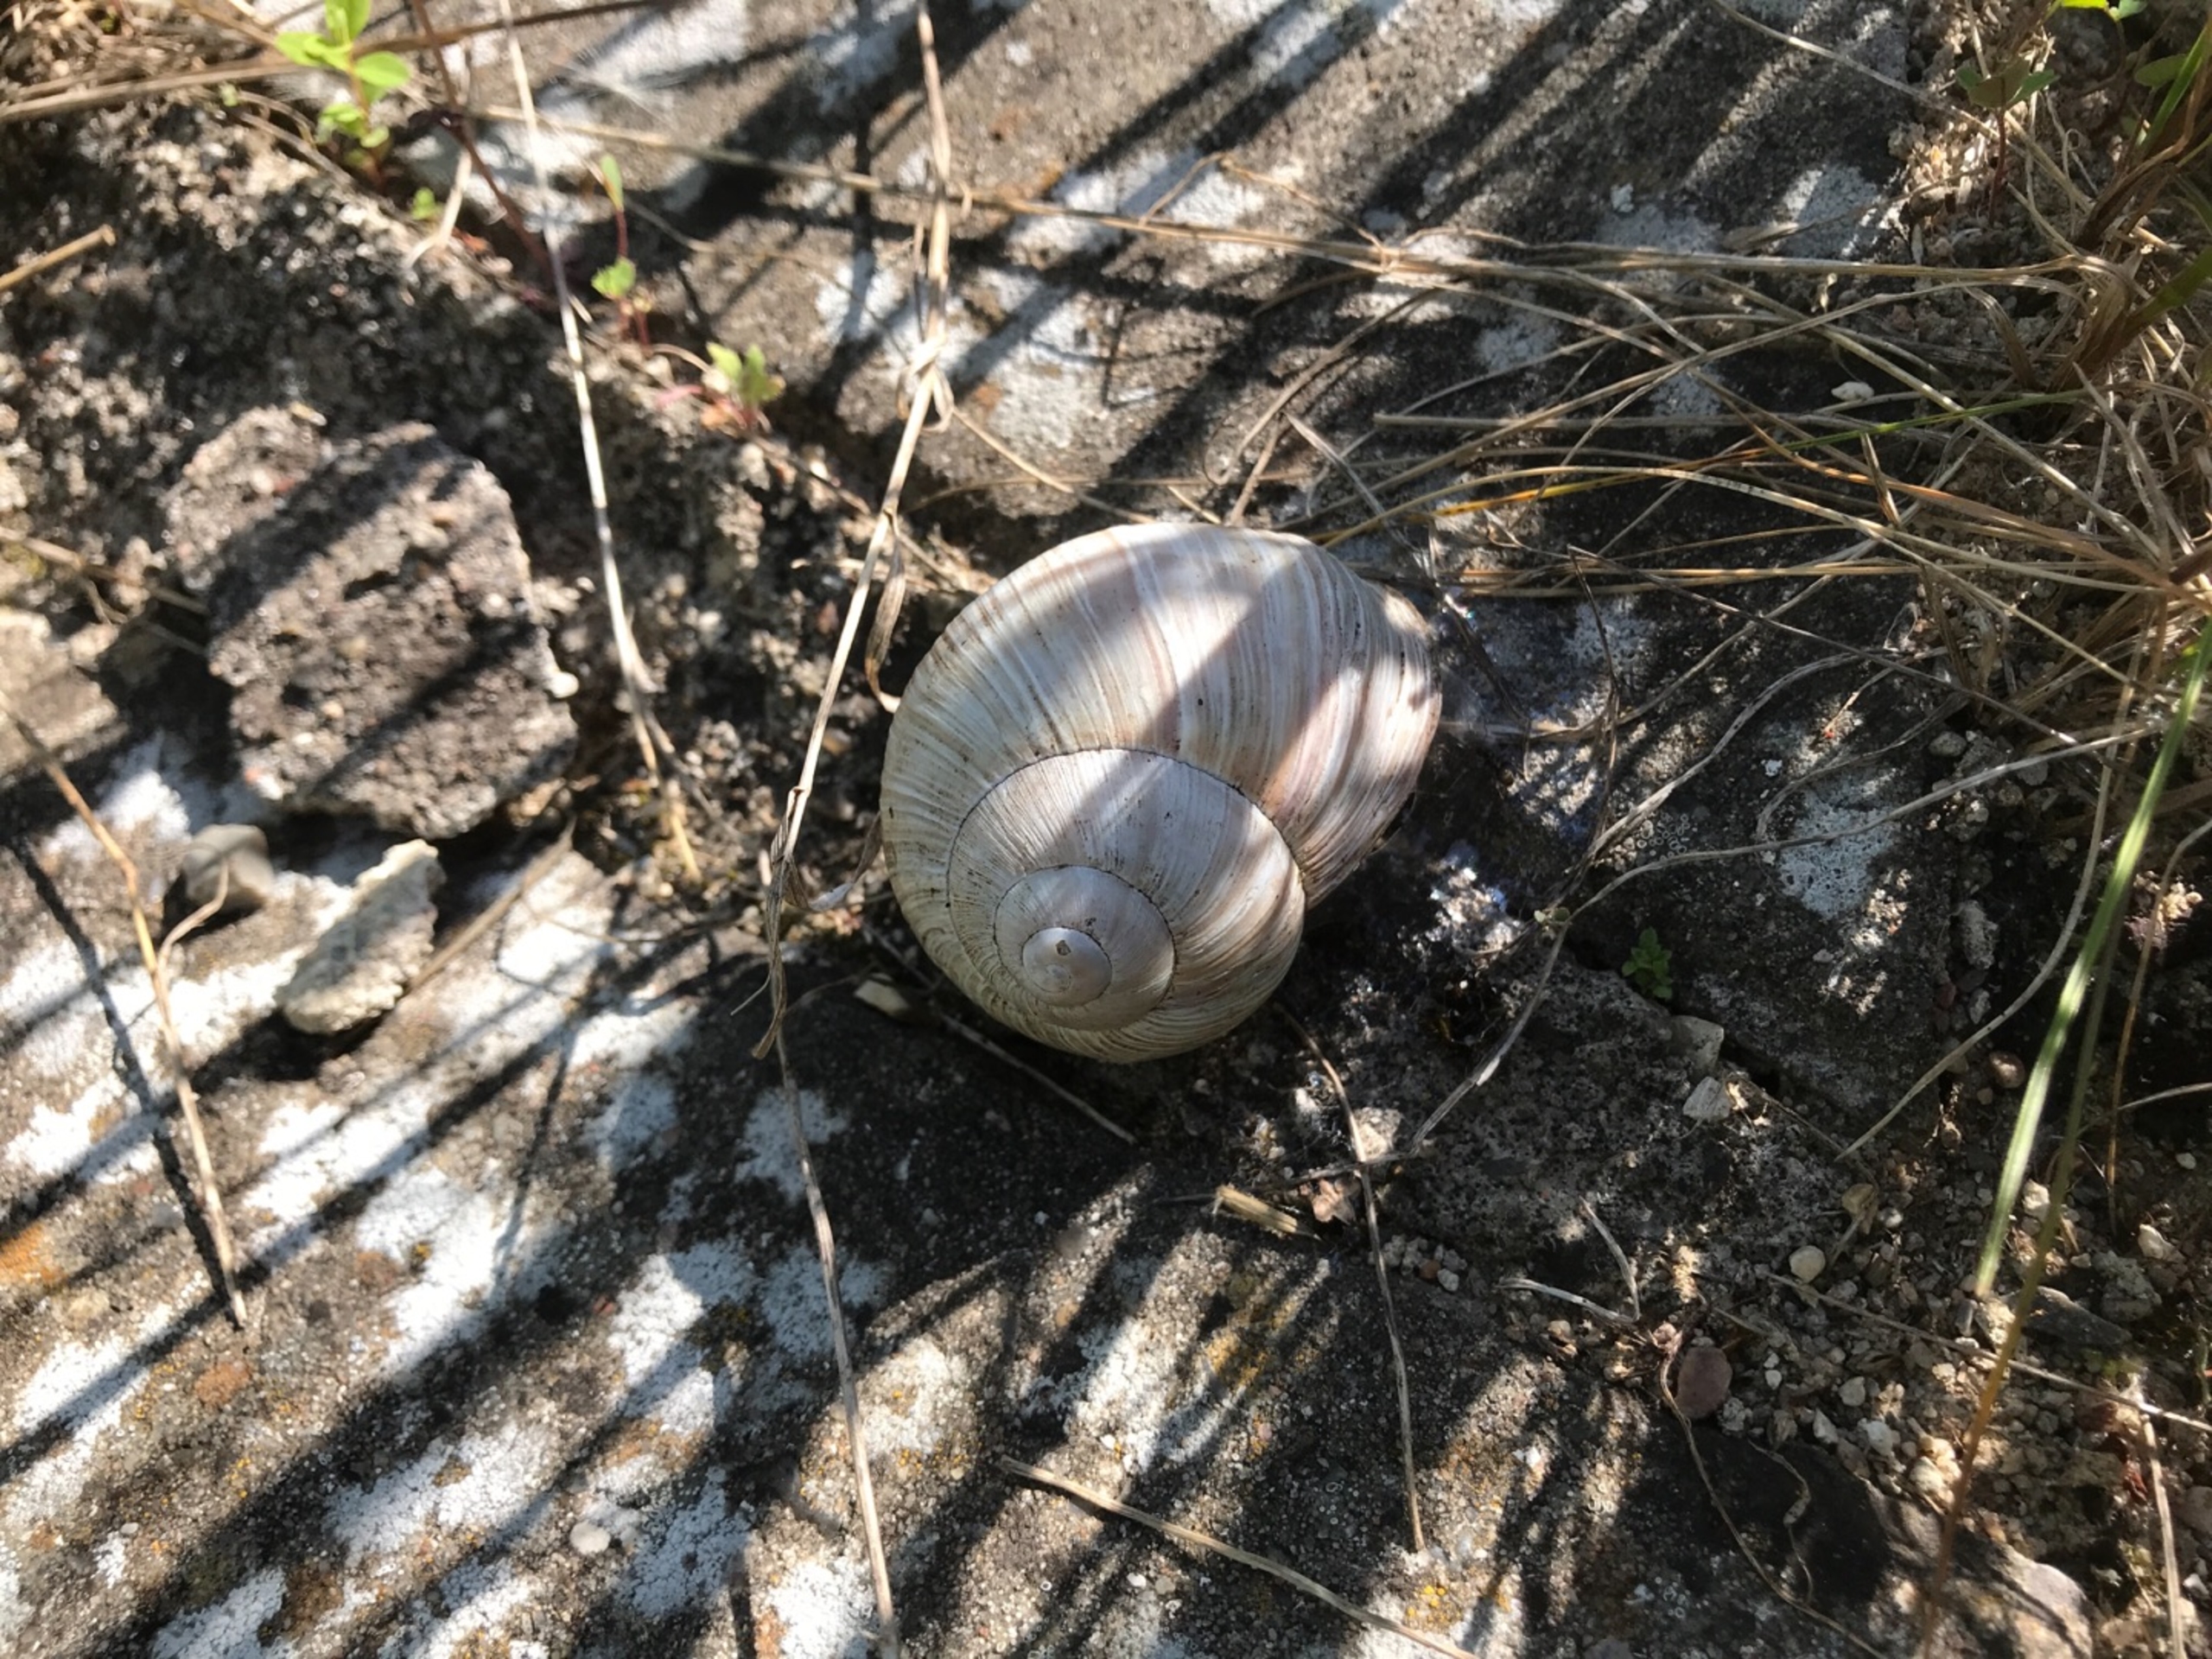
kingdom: Animalia
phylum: Mollusca
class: Gastropoda
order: Stylommatophora
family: Helicidae
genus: Helix
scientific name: Helix pomatia
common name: Vinbjergsnegl
